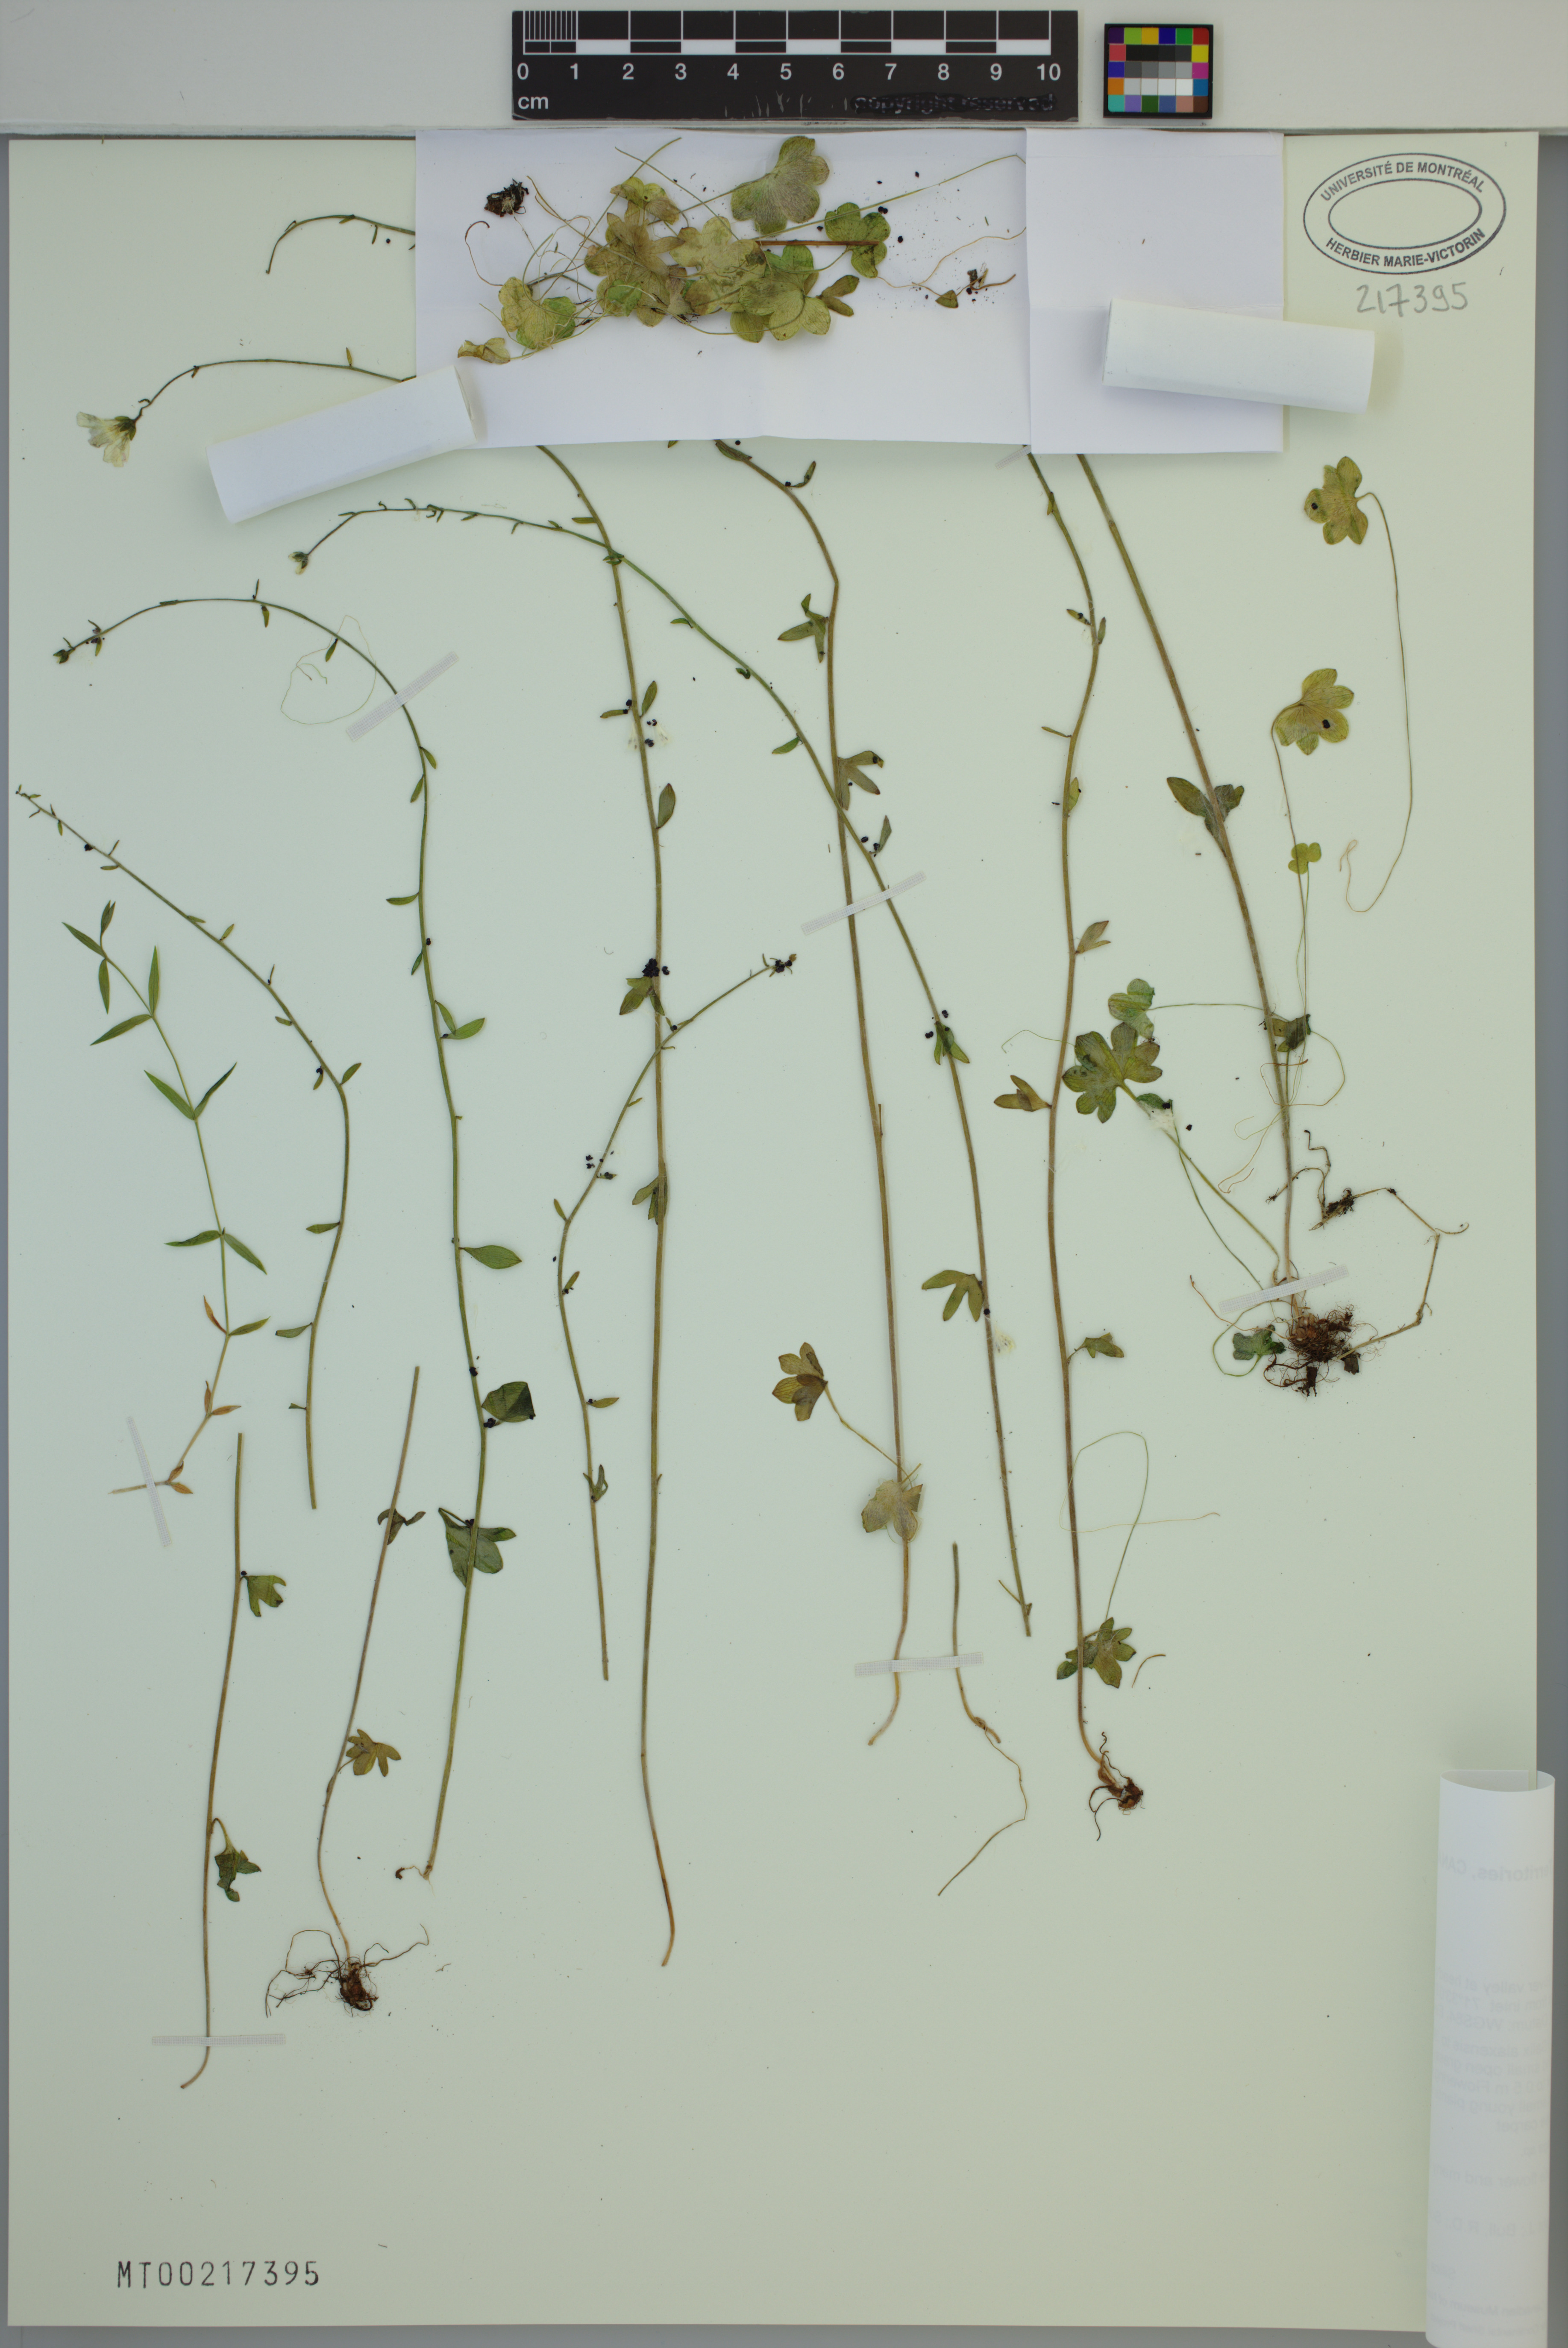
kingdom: Plantae
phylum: Tracheophyta
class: Magnoliopsida
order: Saxifragales
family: Saxifragaceae
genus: Saxifraga
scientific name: Saxifraga cernua
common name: Drooping saxifrage
